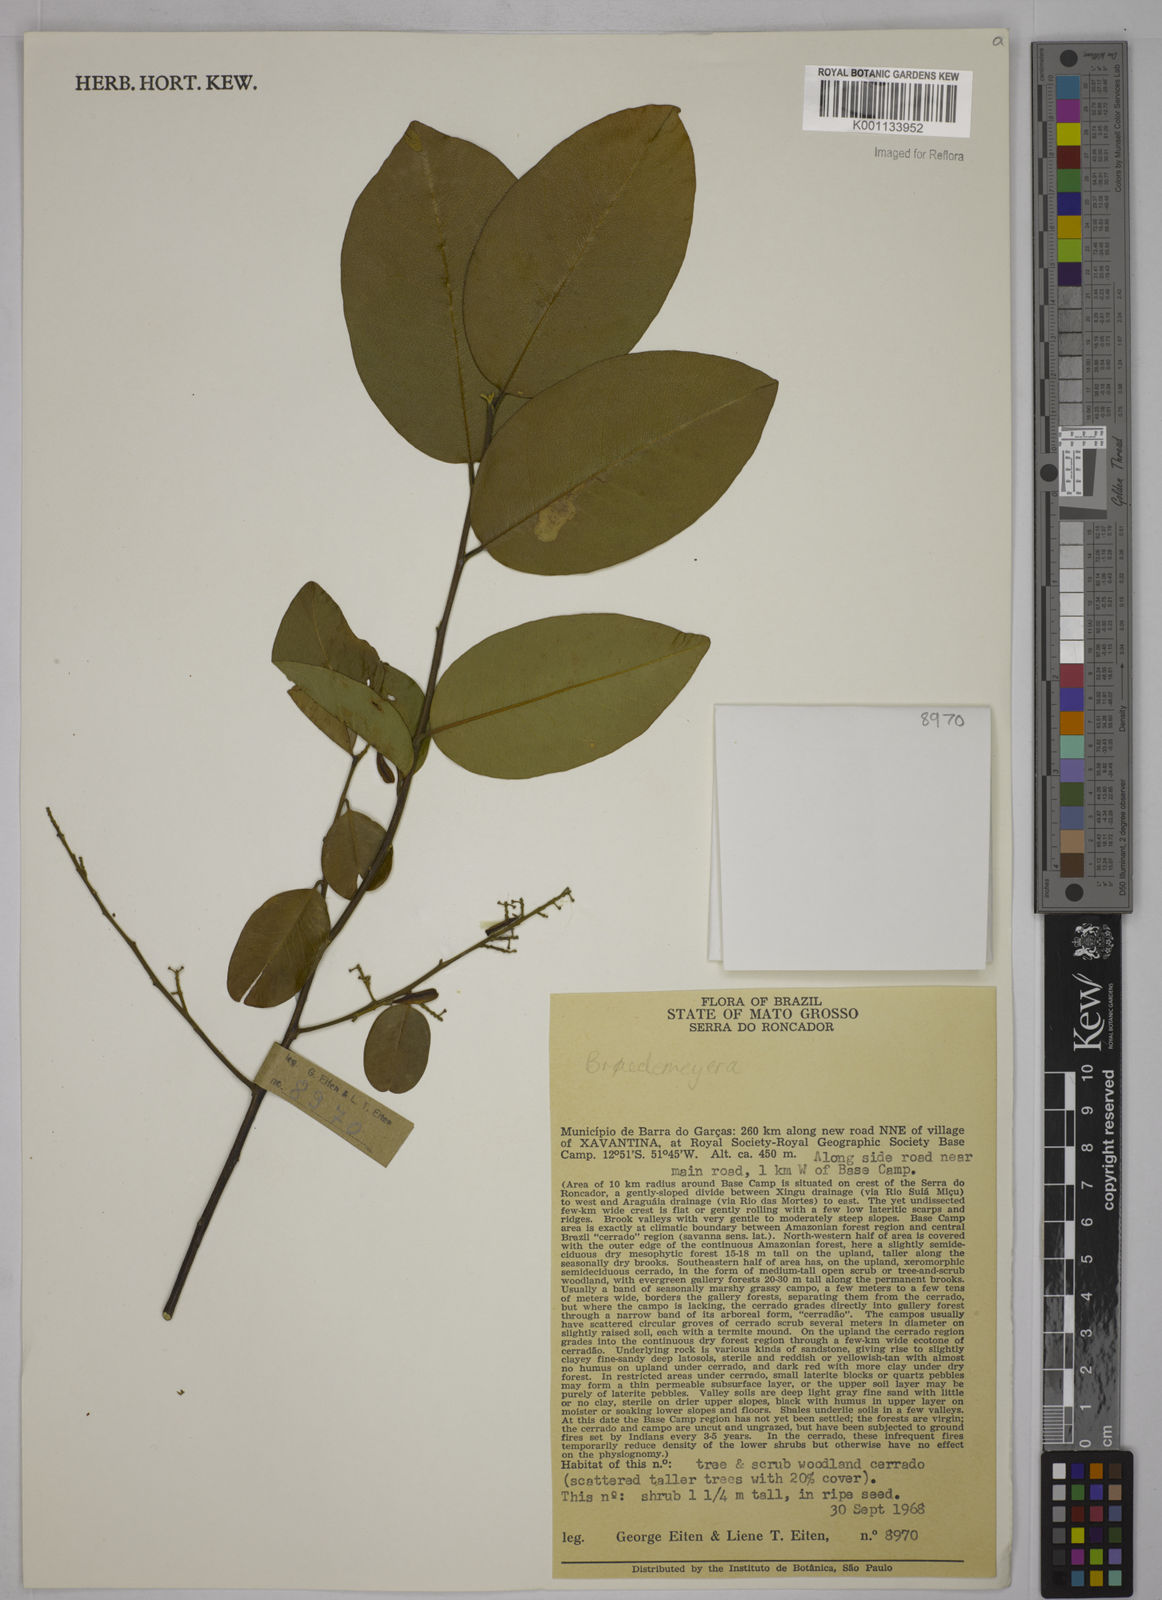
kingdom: Plantae
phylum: Tracheophyta
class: Magnoliopsida
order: Fabales
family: Polygalaceae
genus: Bredemeyera
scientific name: Bredemeyera
